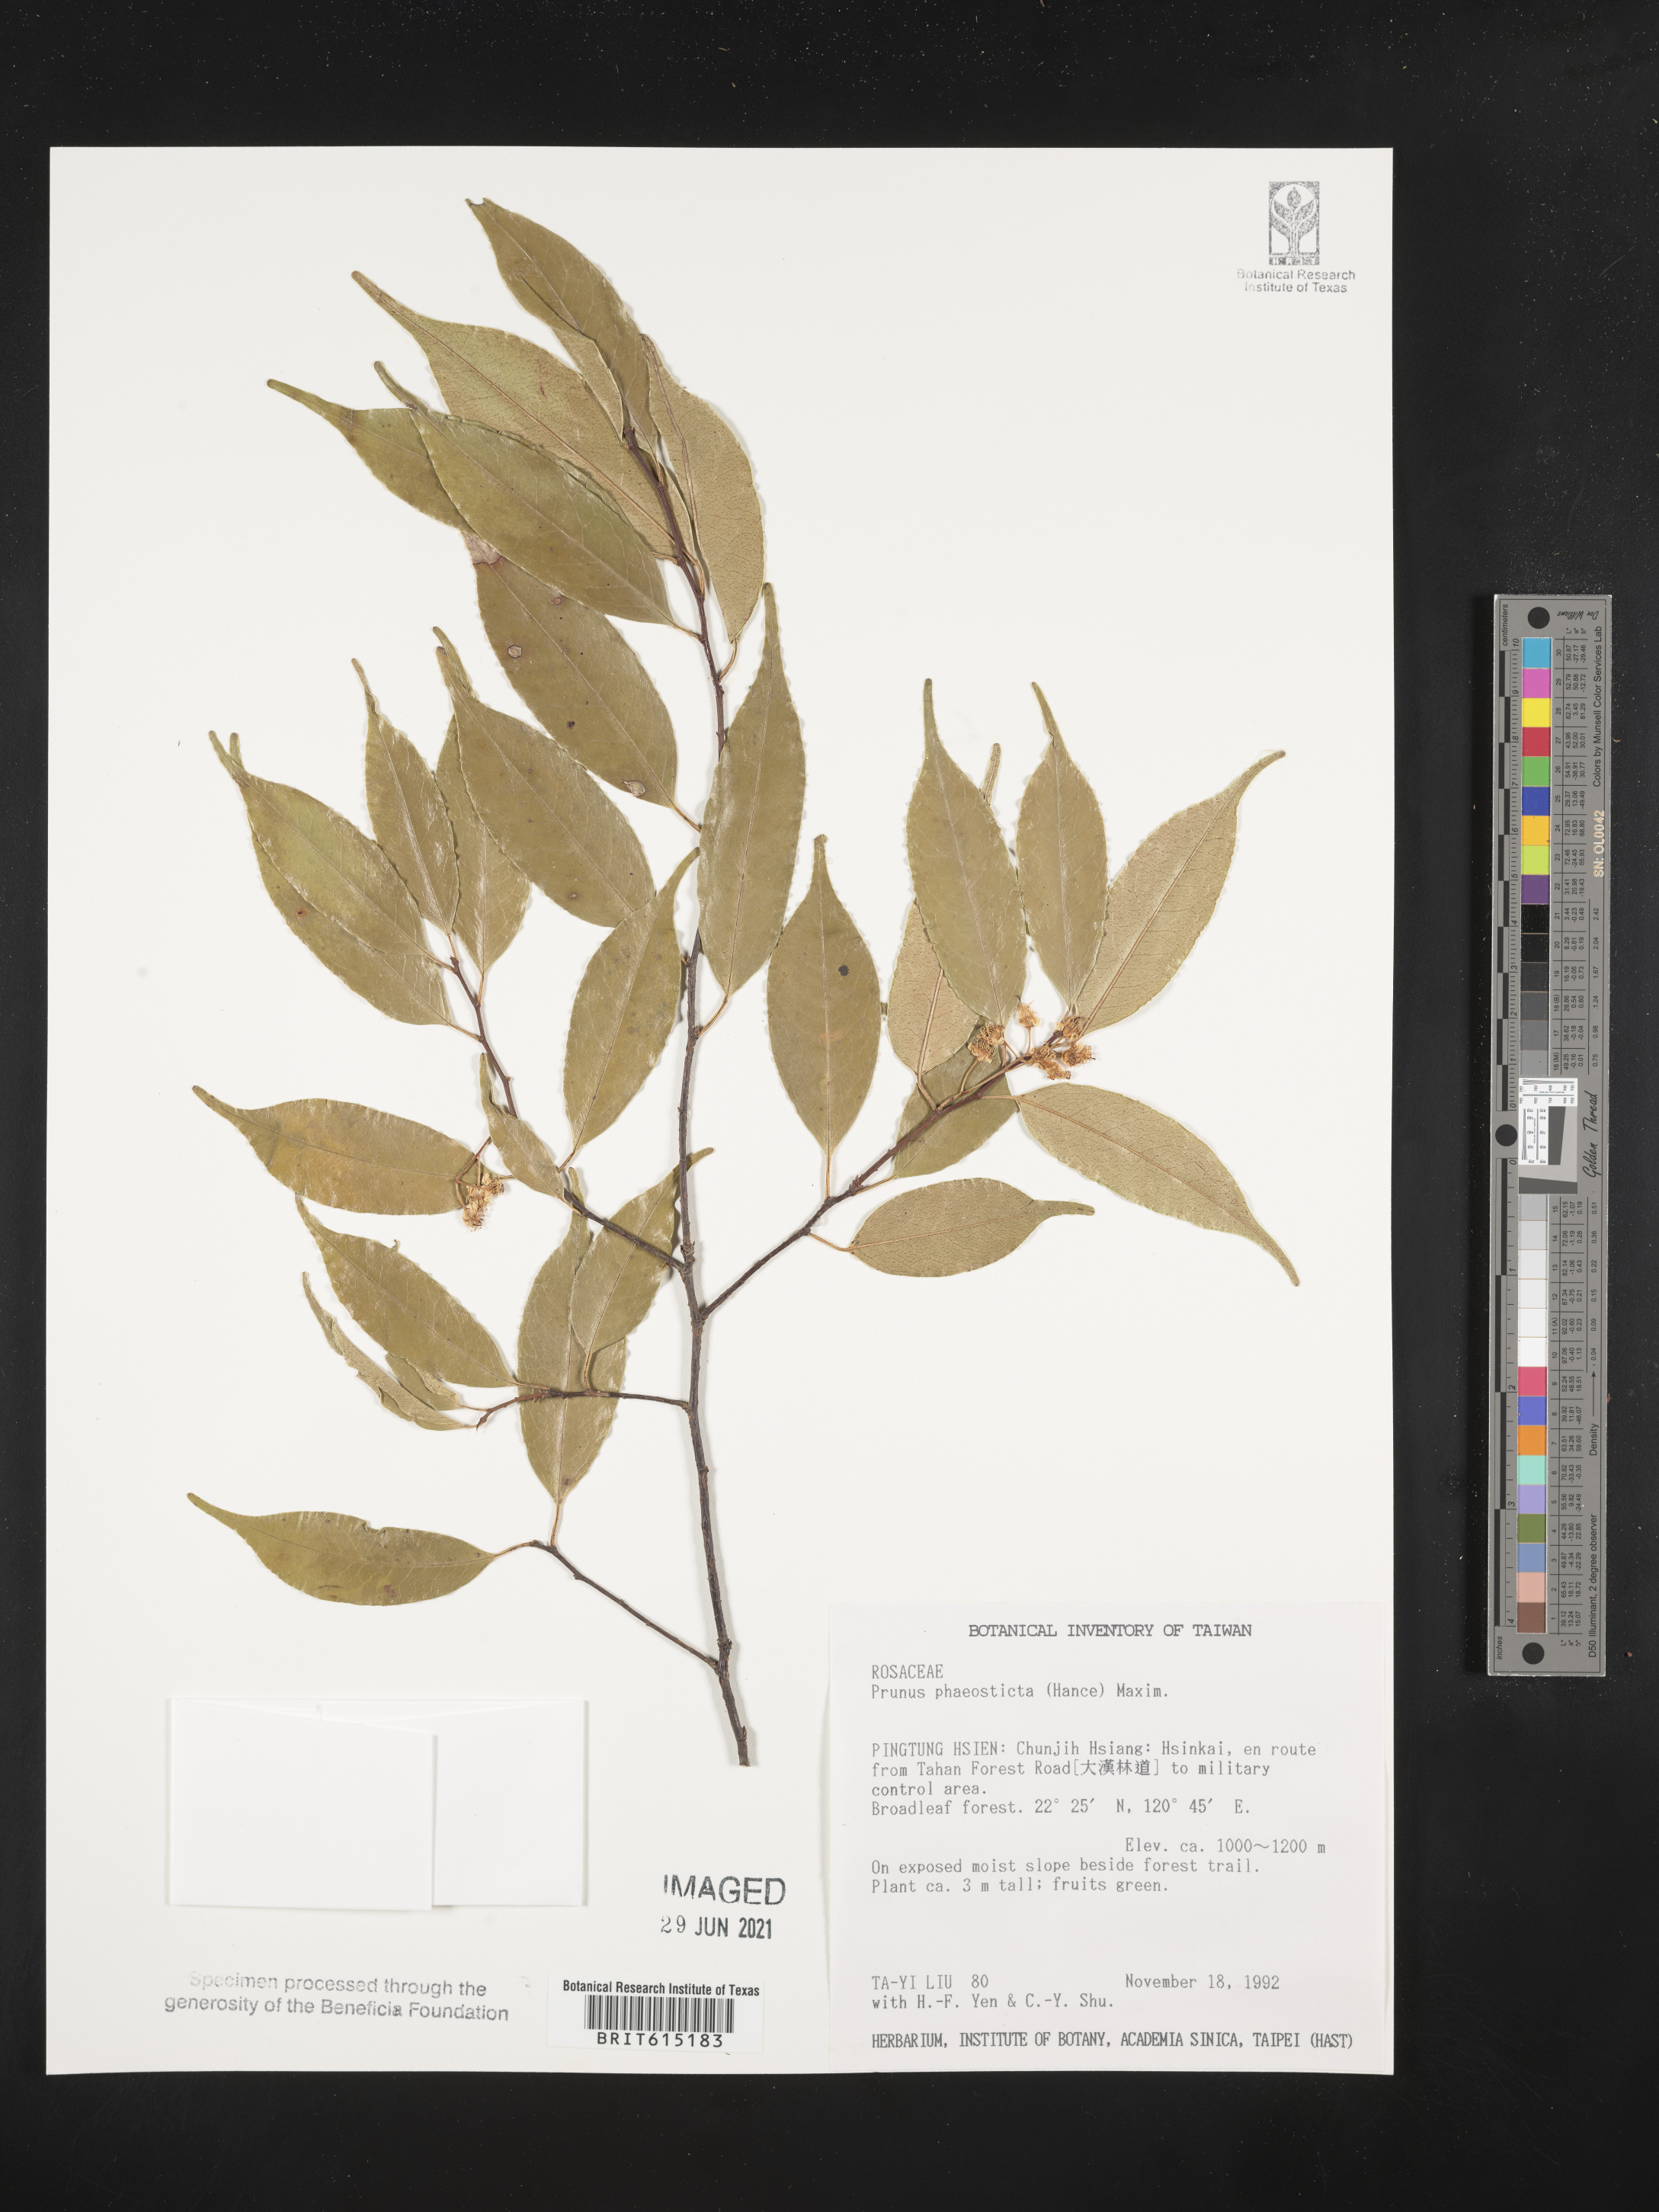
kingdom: Plantae
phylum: Tracheophyta
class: Magnoliopsida
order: Rosales
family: Rosaceae
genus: Prunus
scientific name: Prunus phaeosticta
